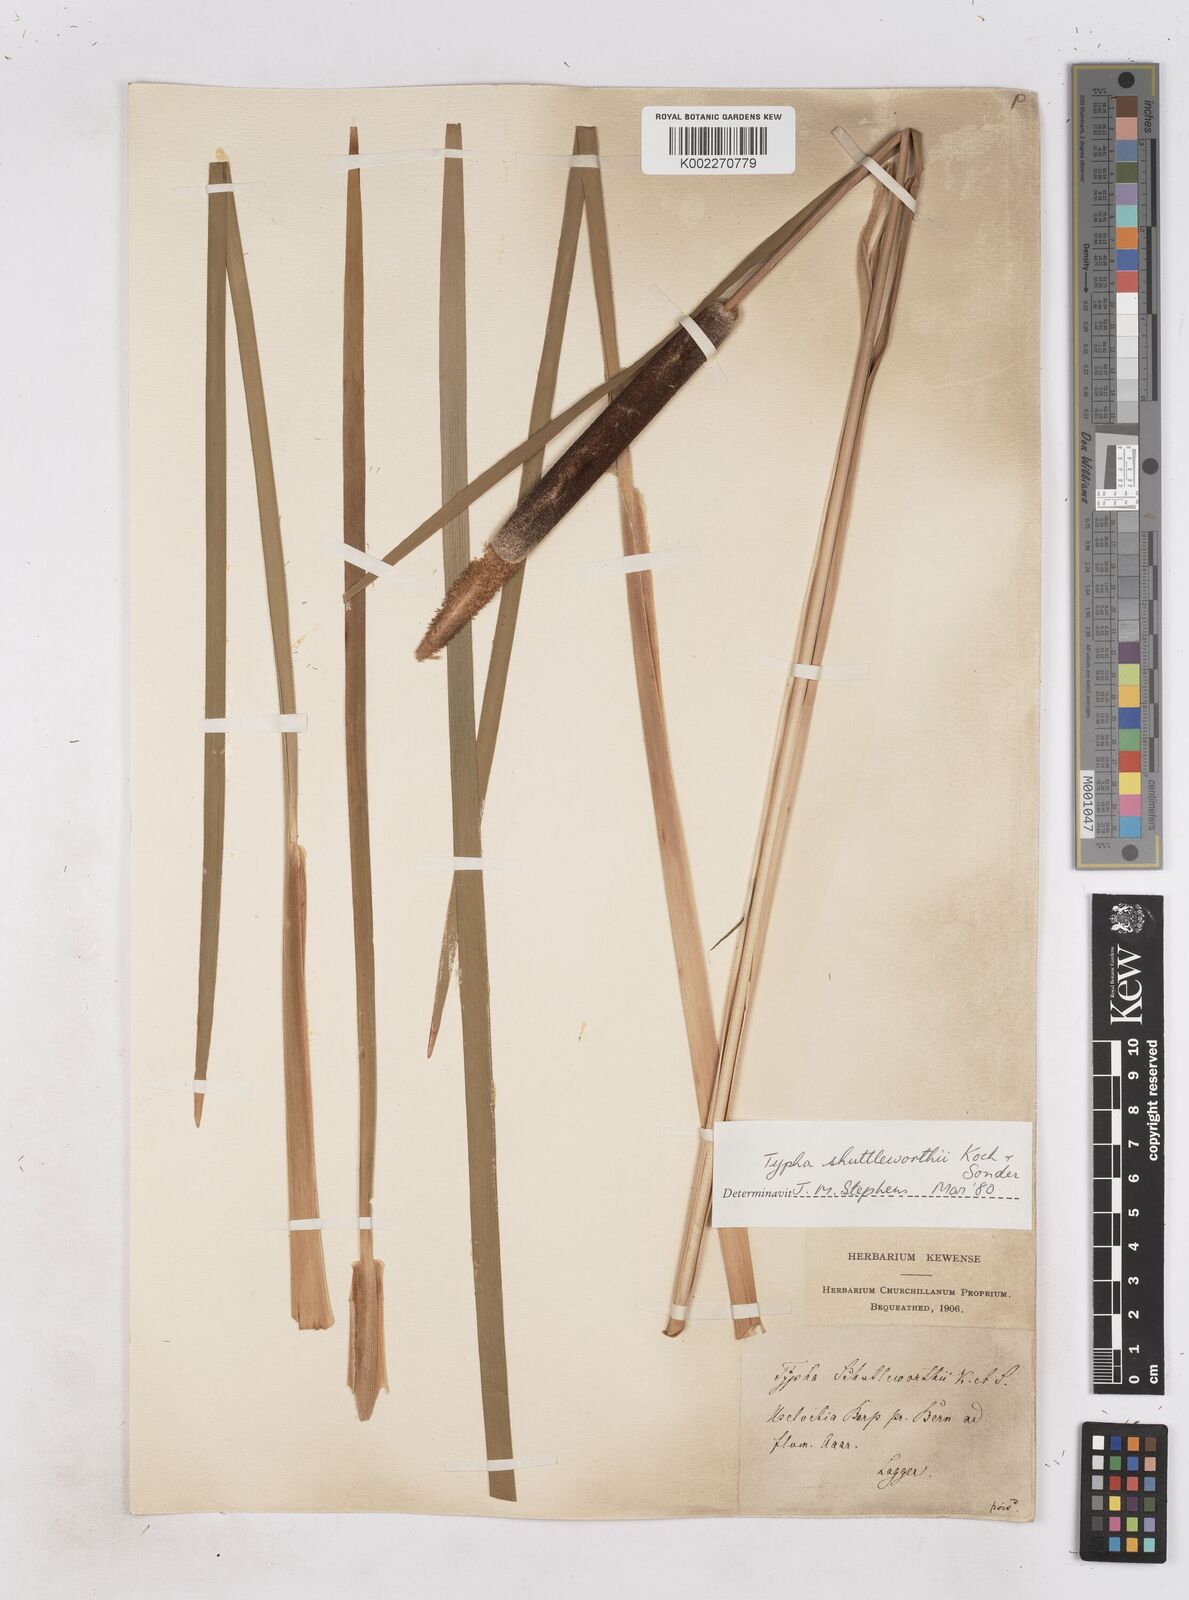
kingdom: Plantae
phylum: Tracheophyta
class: Liliopsida
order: Poales
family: Typhaceae
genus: Typha
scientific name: Typha shuttleworthii
